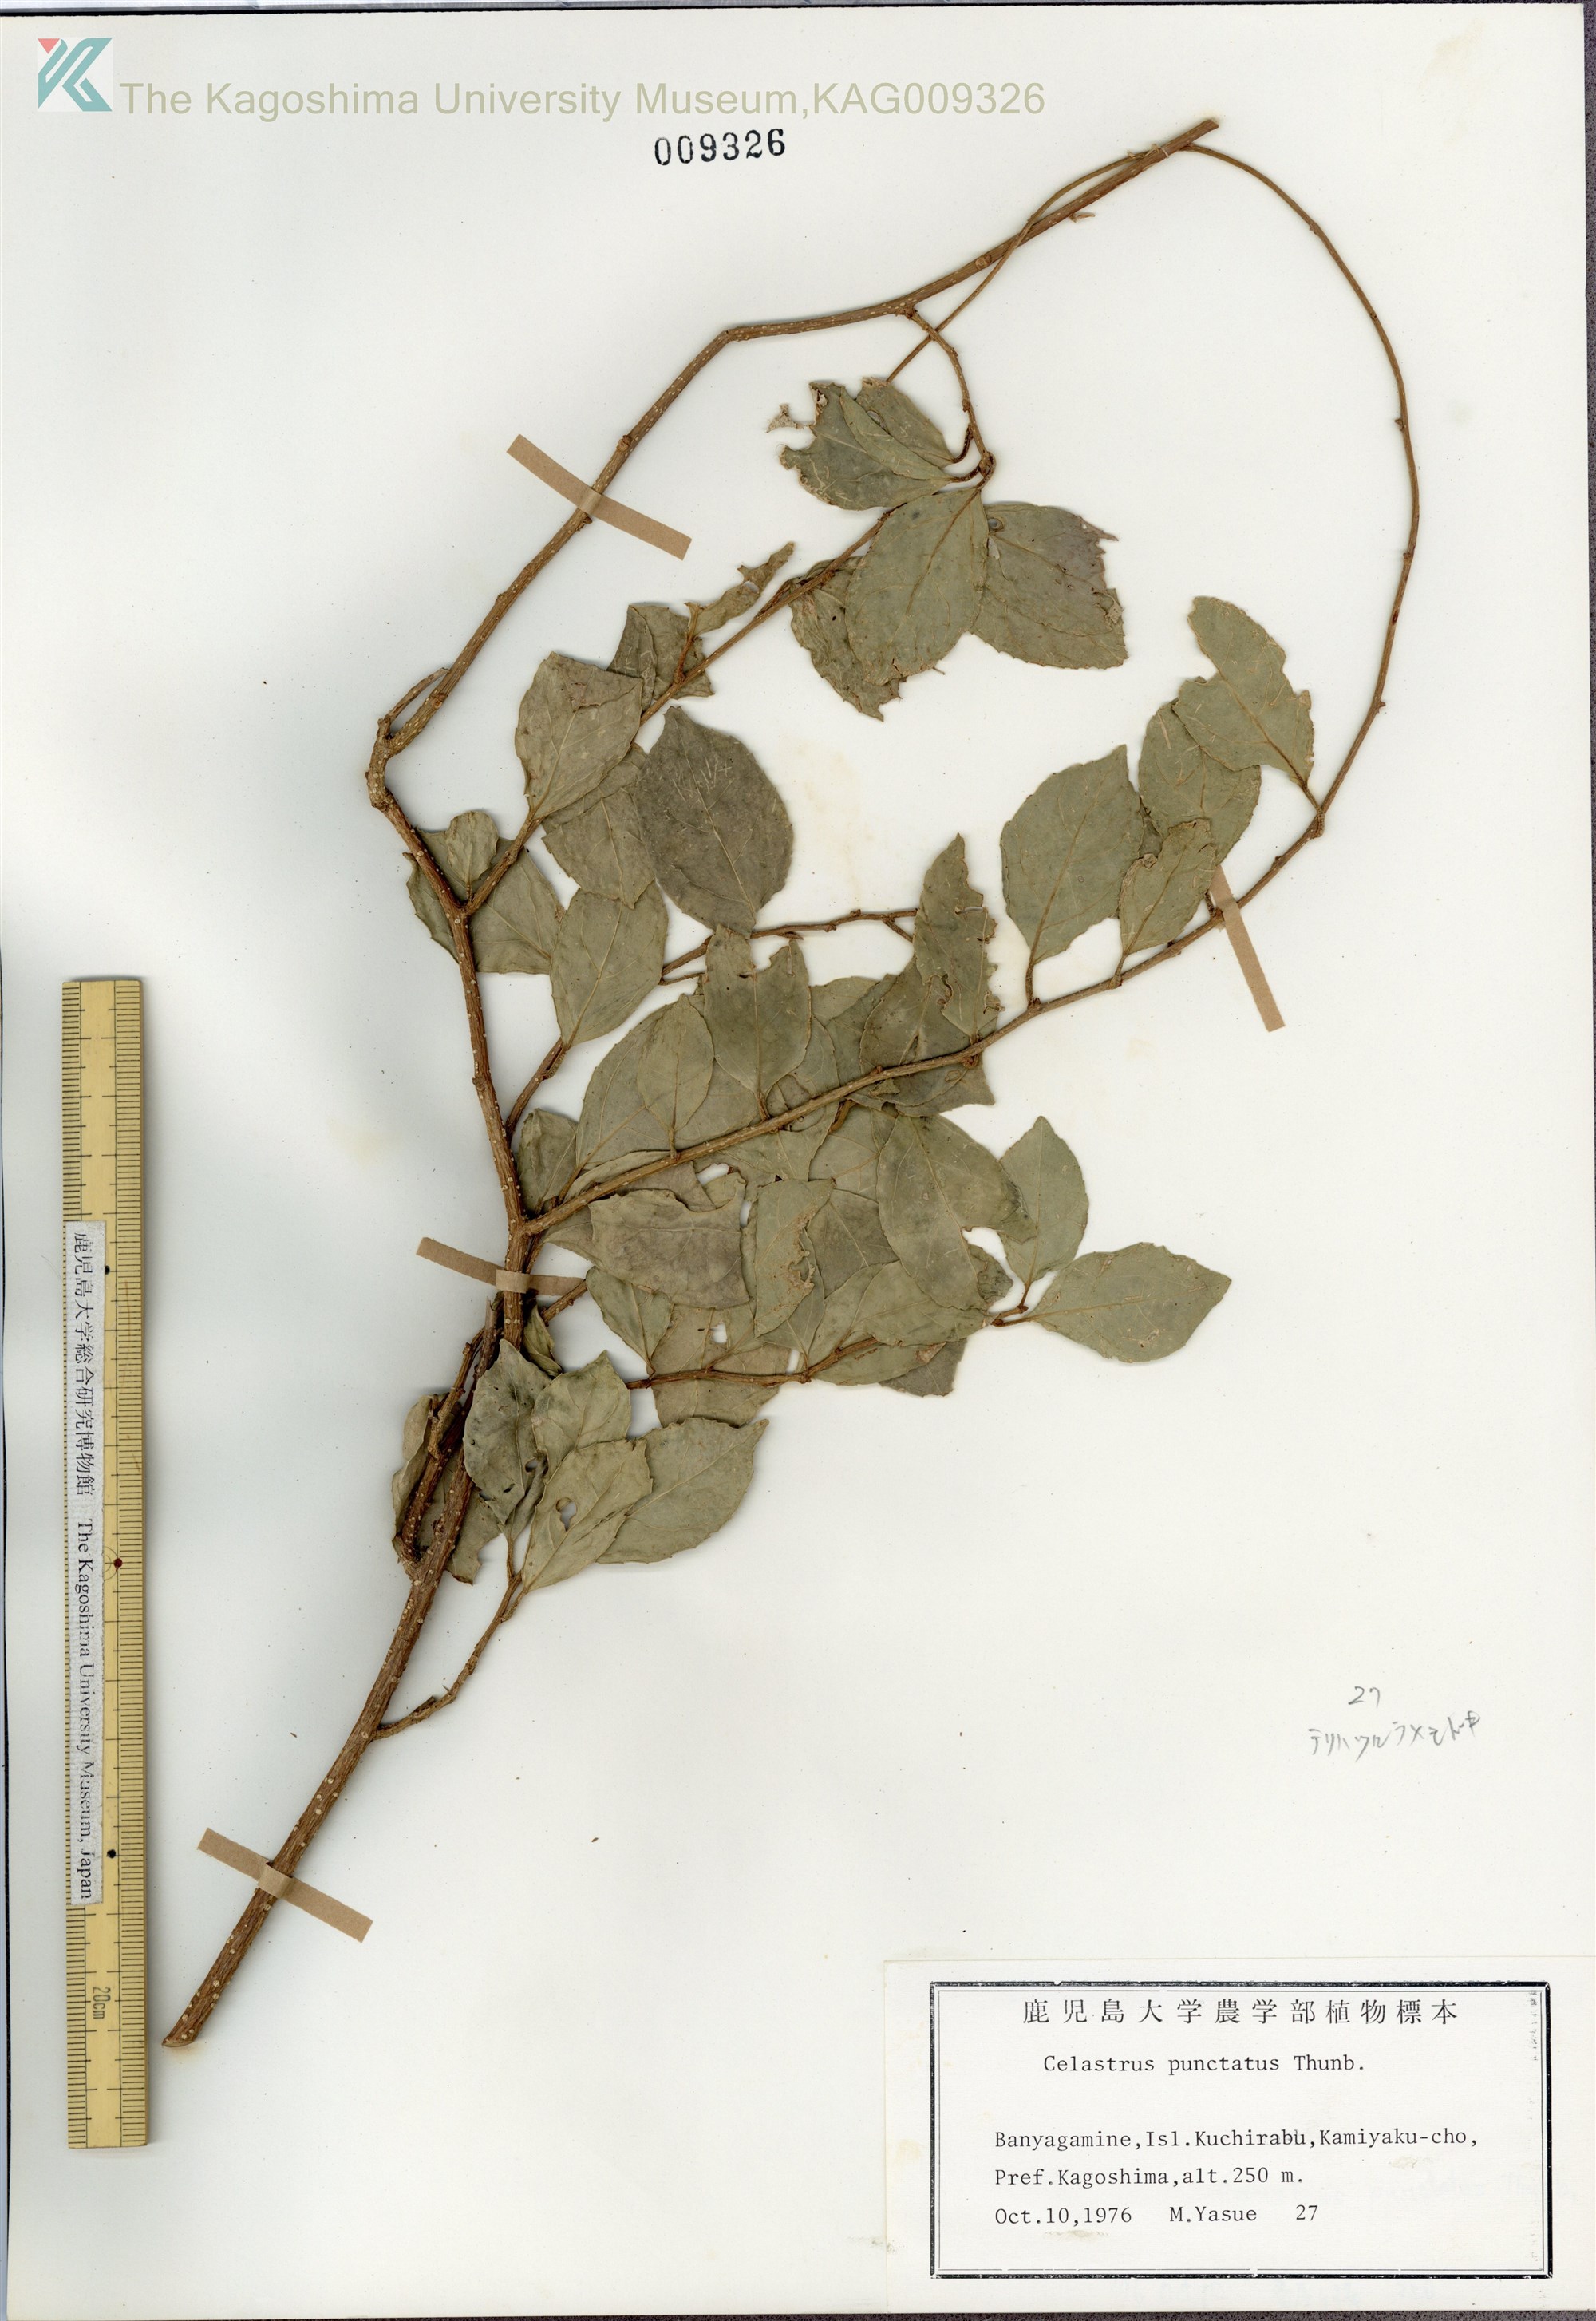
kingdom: Plantae
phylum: Tracheophyta
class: Magnoliopsida
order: Celastrales
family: Celastraceae
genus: Celastrus
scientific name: Celastrus punctatus
